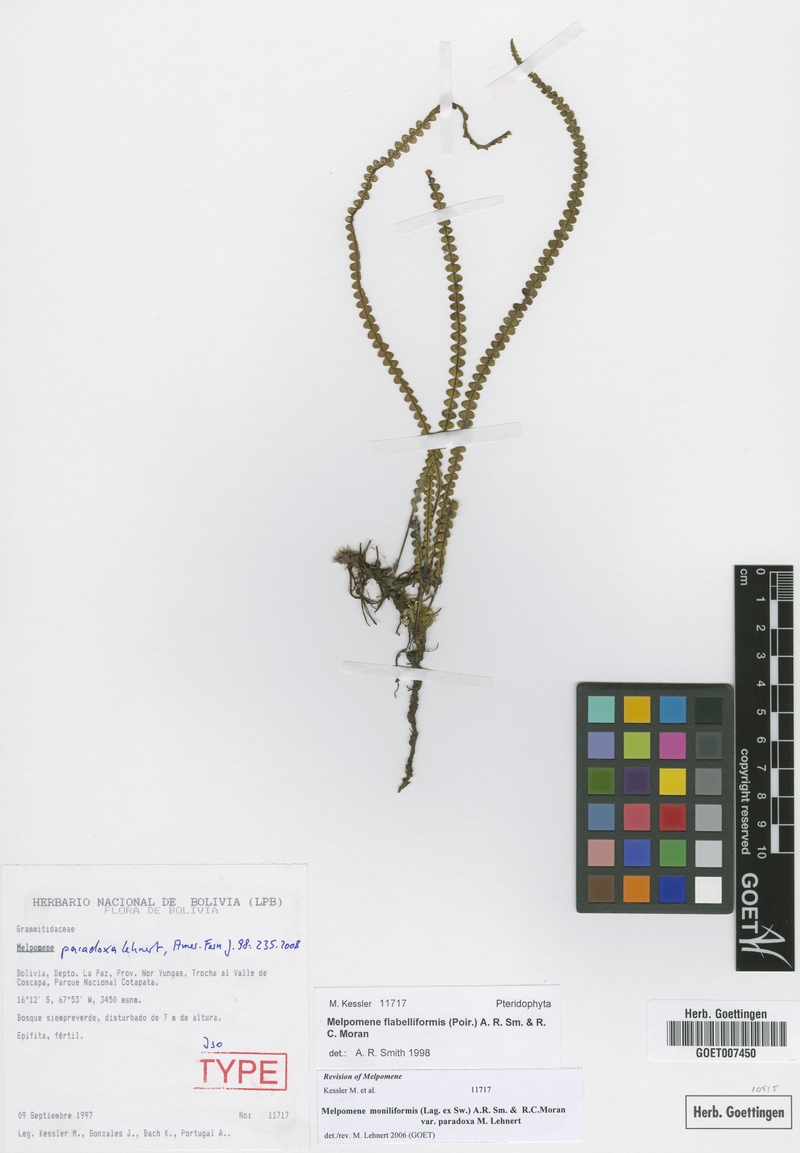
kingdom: Plantae
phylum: Tracheophyta
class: Polypodiopsida
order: Polypodiales
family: Polypodiaceae
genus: Melpomene
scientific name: Melpomene paradoxa
